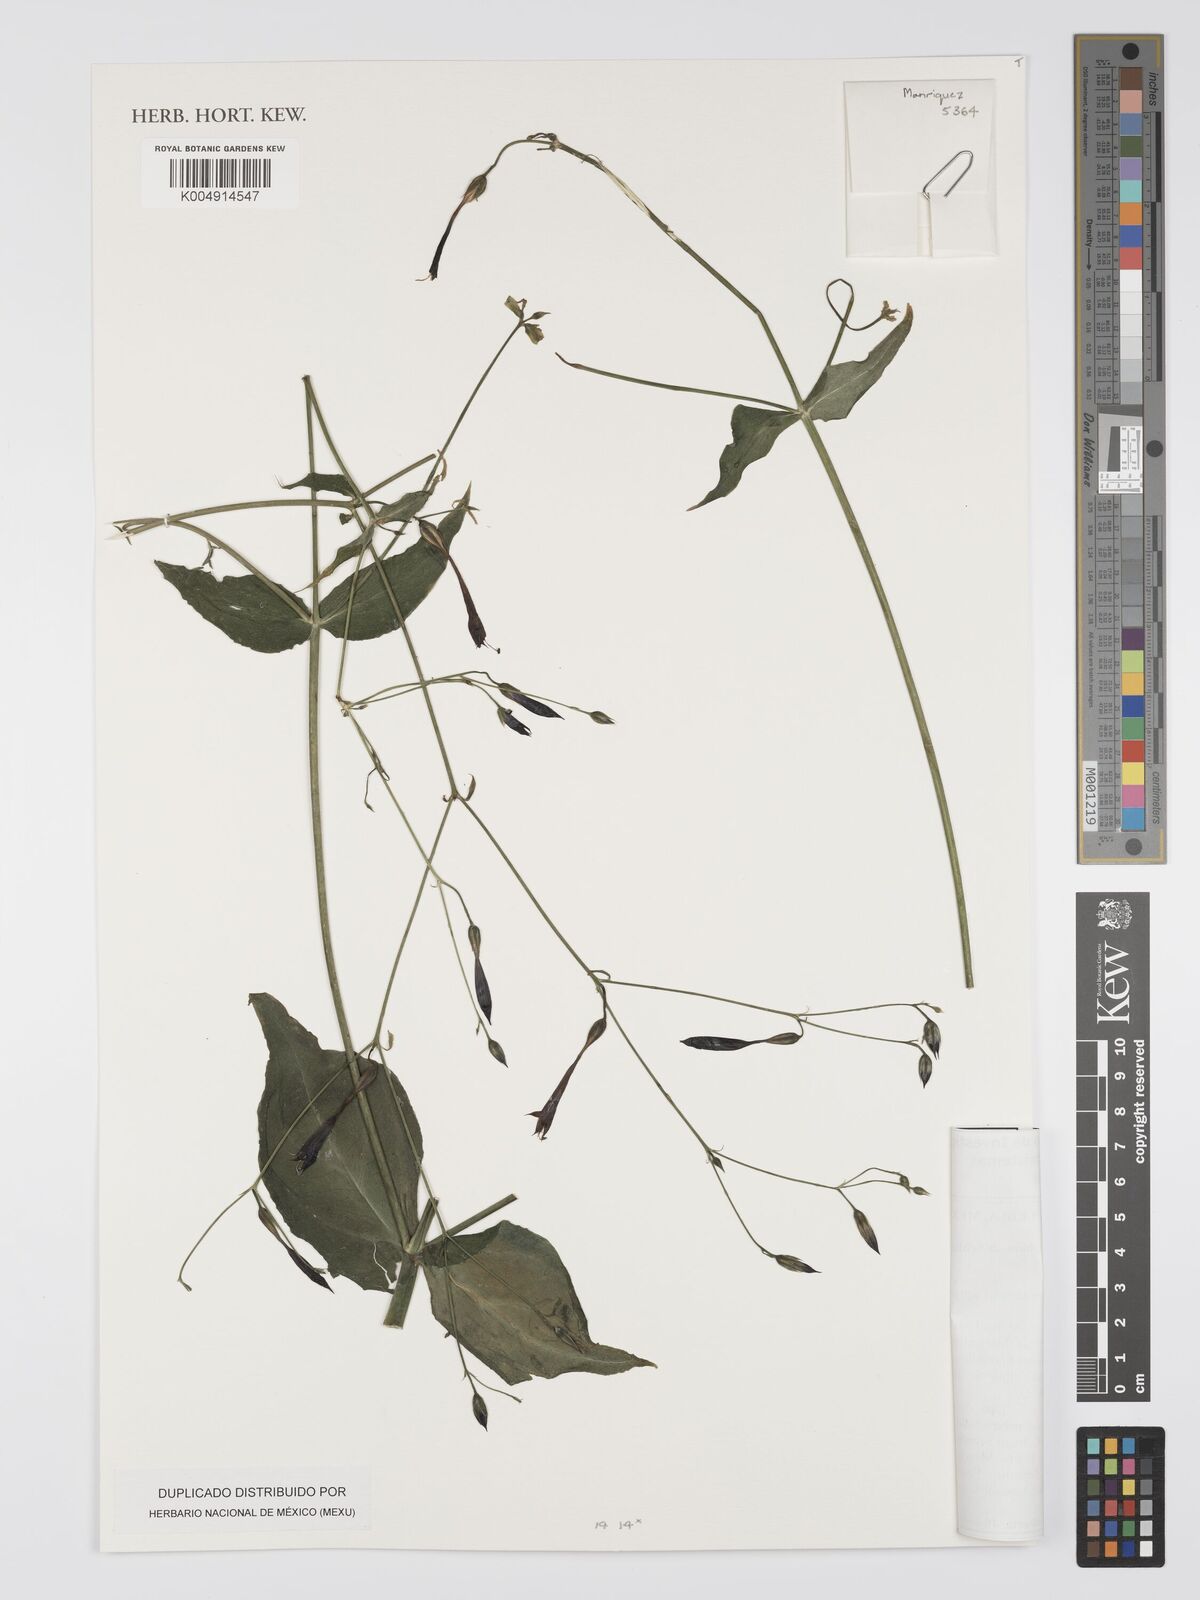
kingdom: Plantae
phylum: Tracheophyta
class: Magnoliopsida
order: Gentianales
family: Gentianaceae
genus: Lisianthus
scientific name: Lisianthus nigrescens
